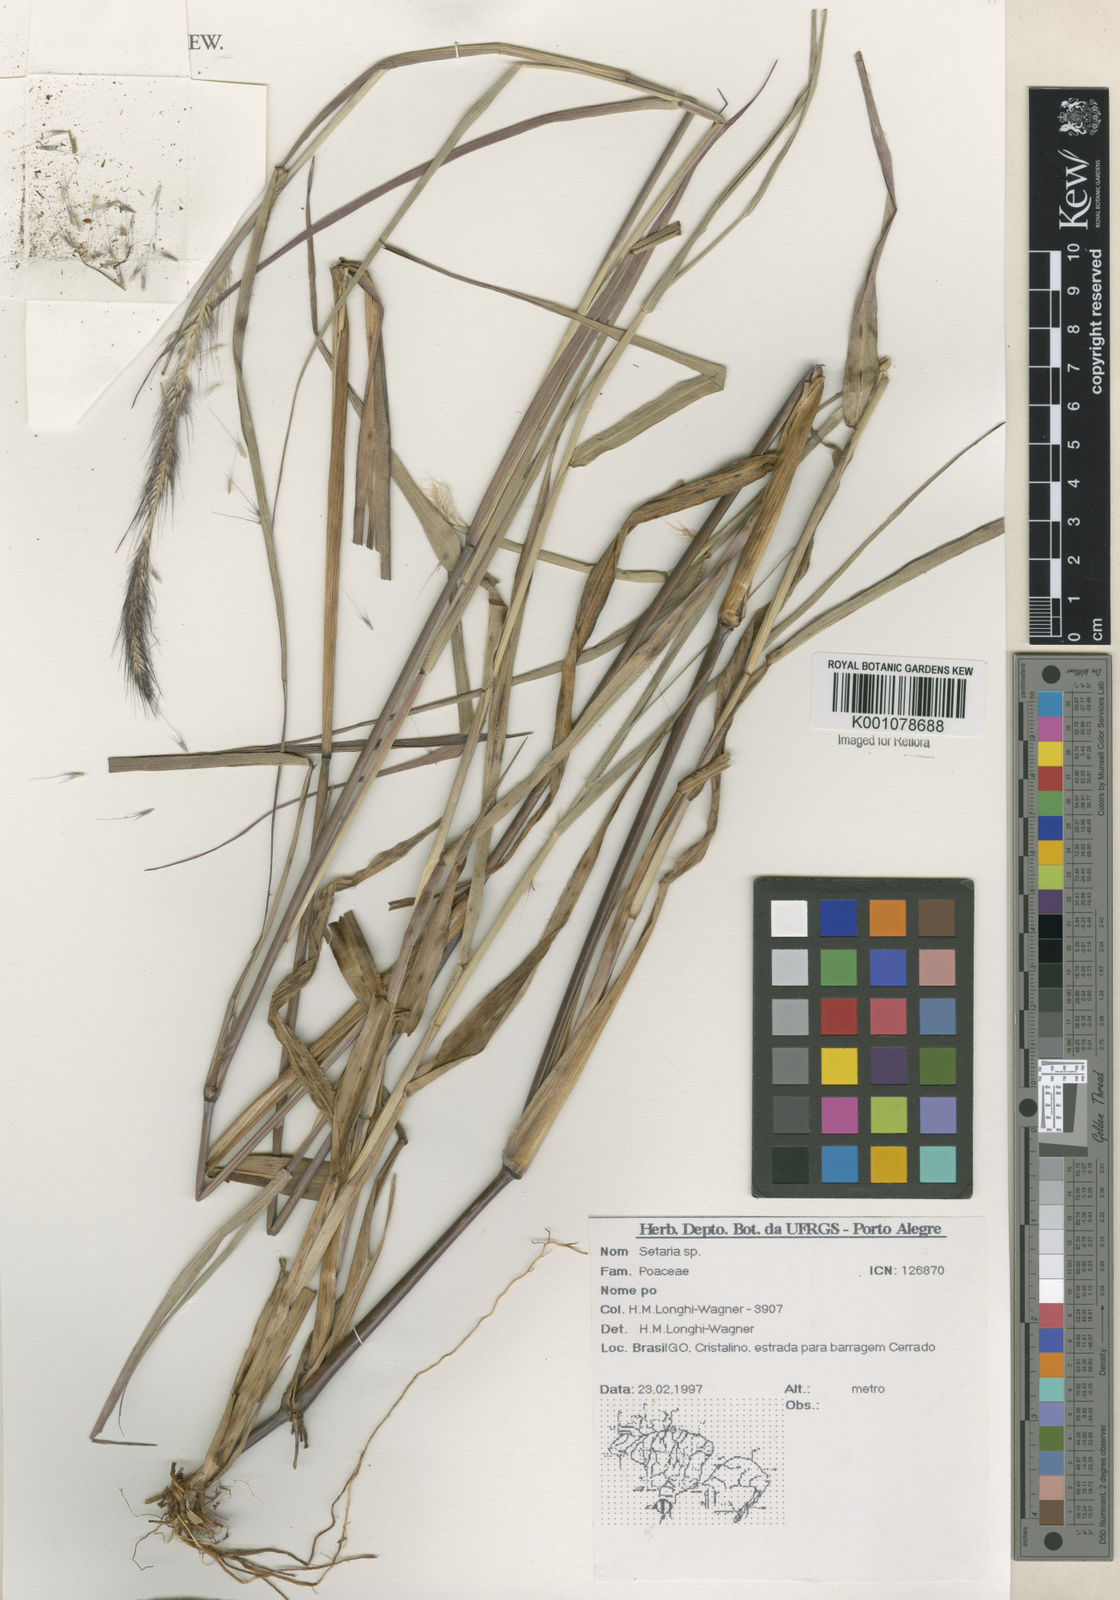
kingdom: Plantae
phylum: Tracheophyta
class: Liliopsida
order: Poales
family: Poaceae
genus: Setaria
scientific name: Setaria
